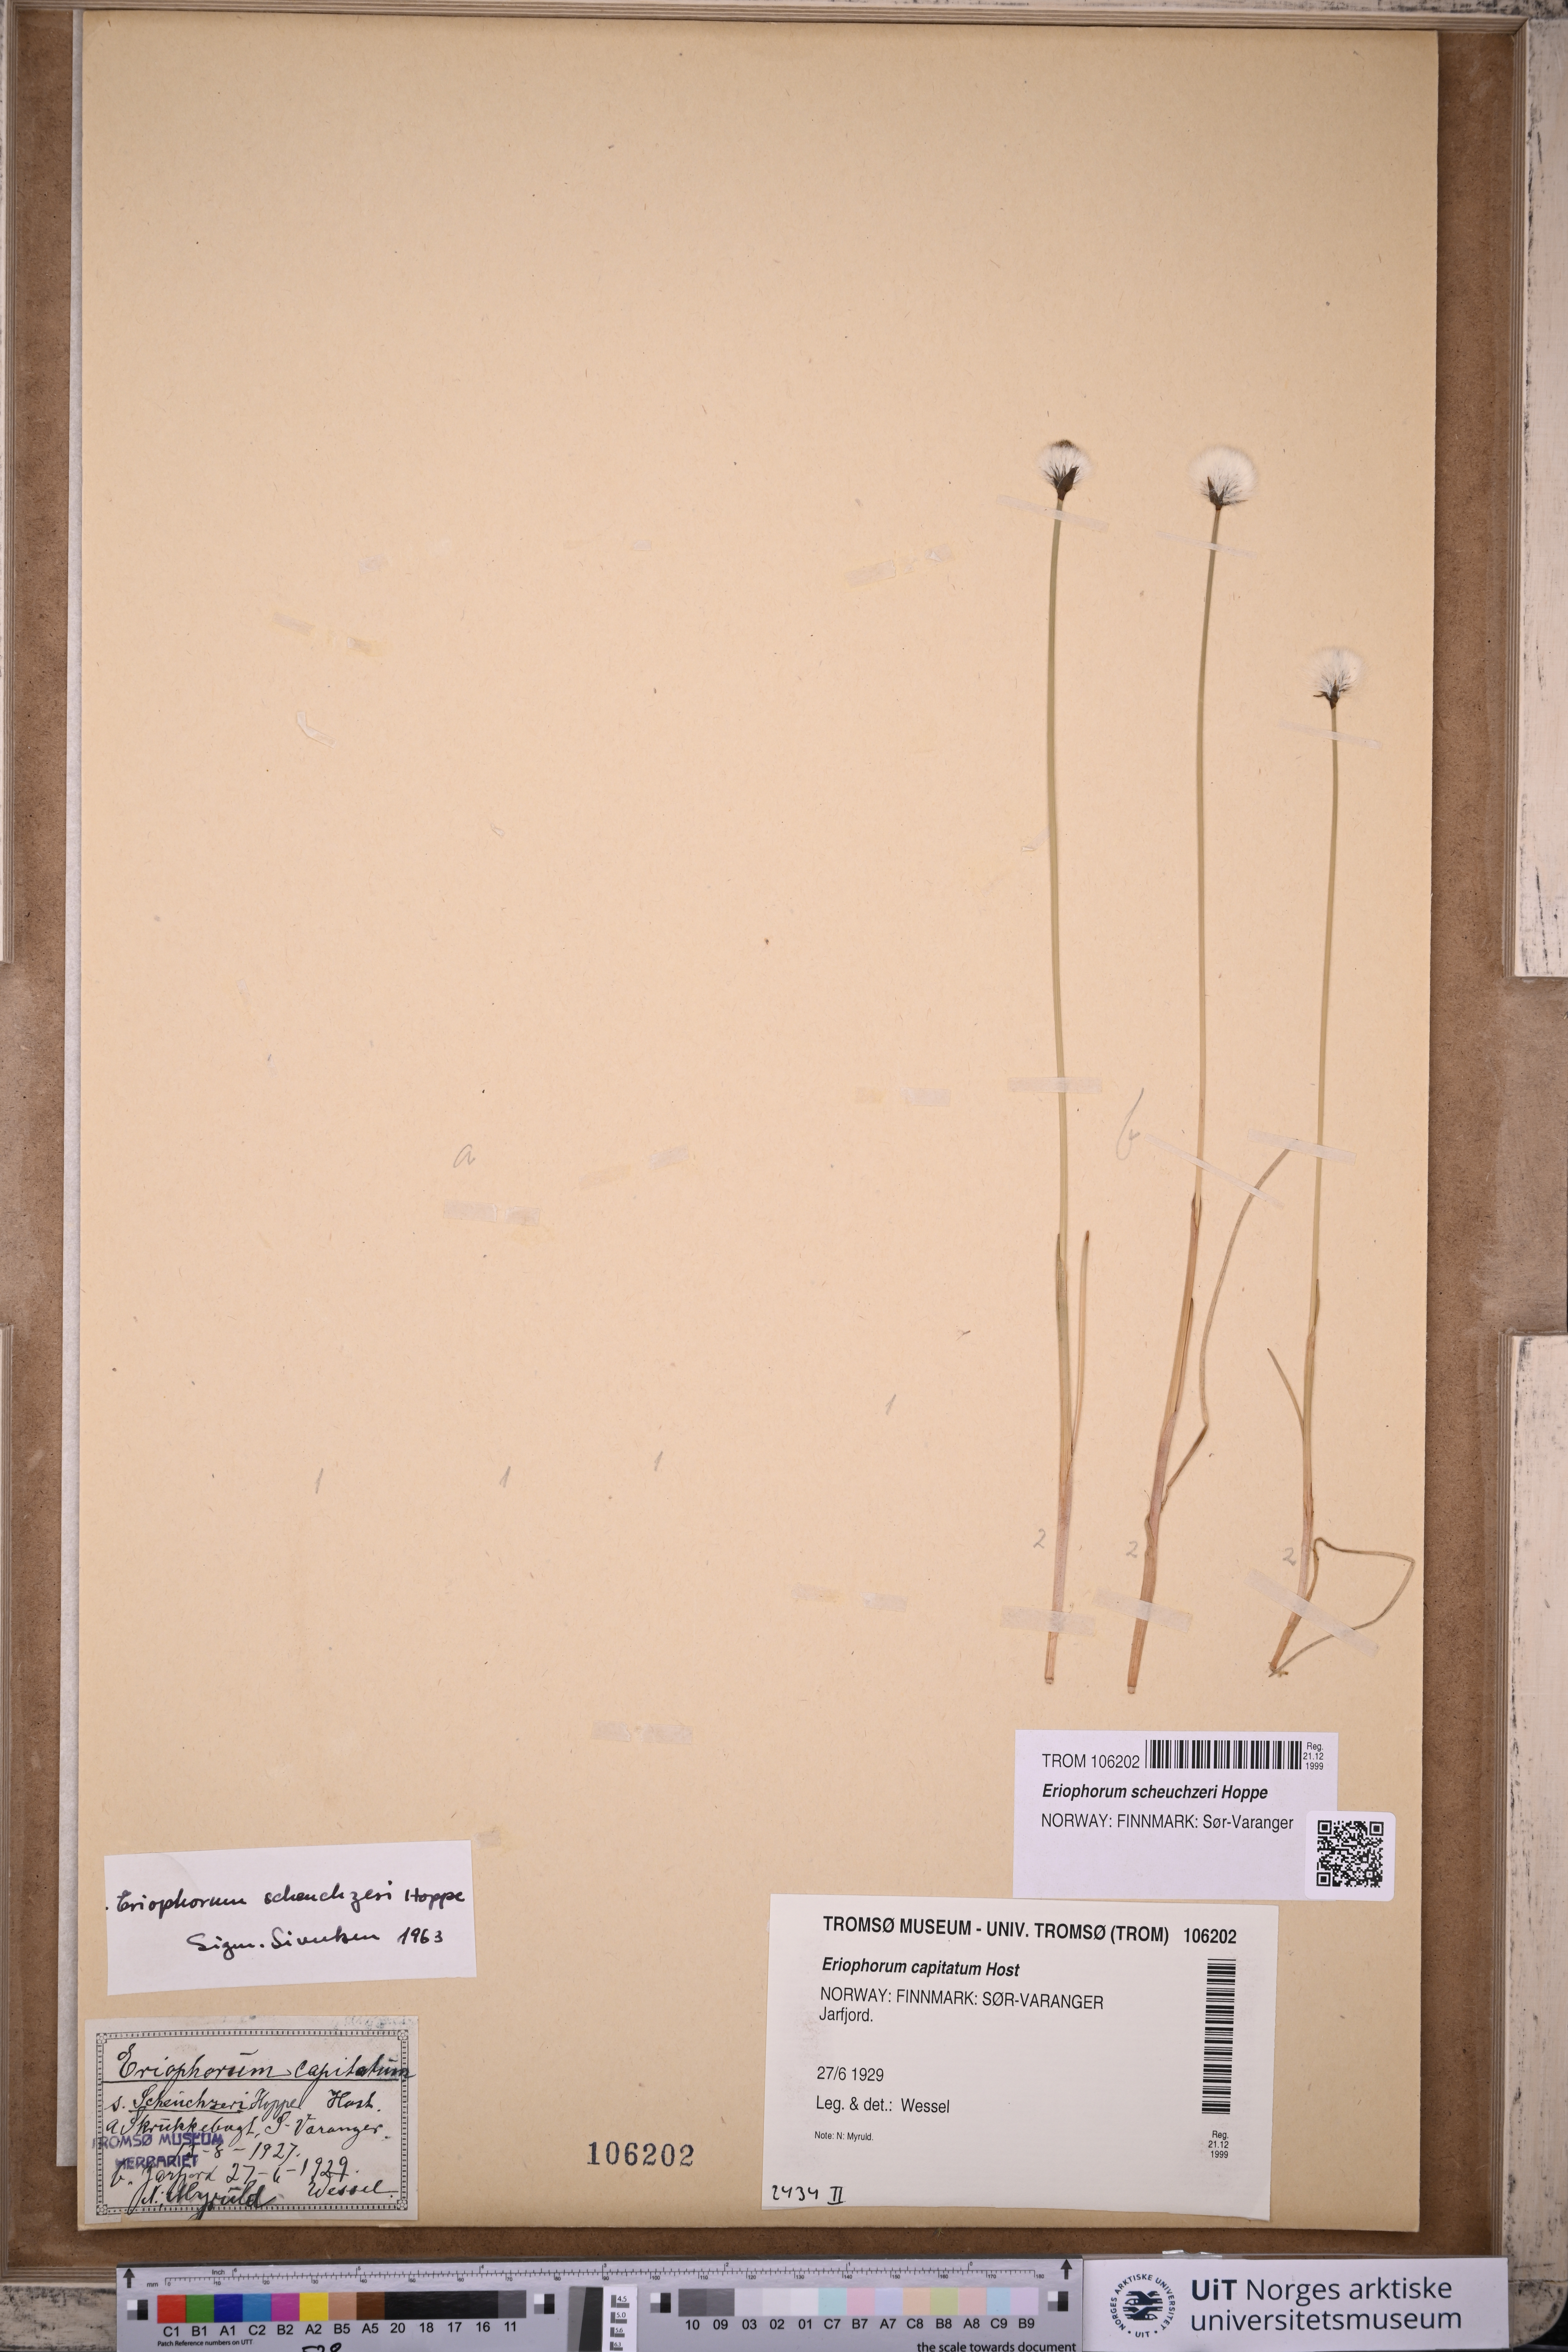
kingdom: Plantae
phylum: Tracheophyta
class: Liliopsida
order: Poales
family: Cyperaceae
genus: Eriophorum
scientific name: Eriophorum scheuchzeri
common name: Scheuchzer's cottongrass
